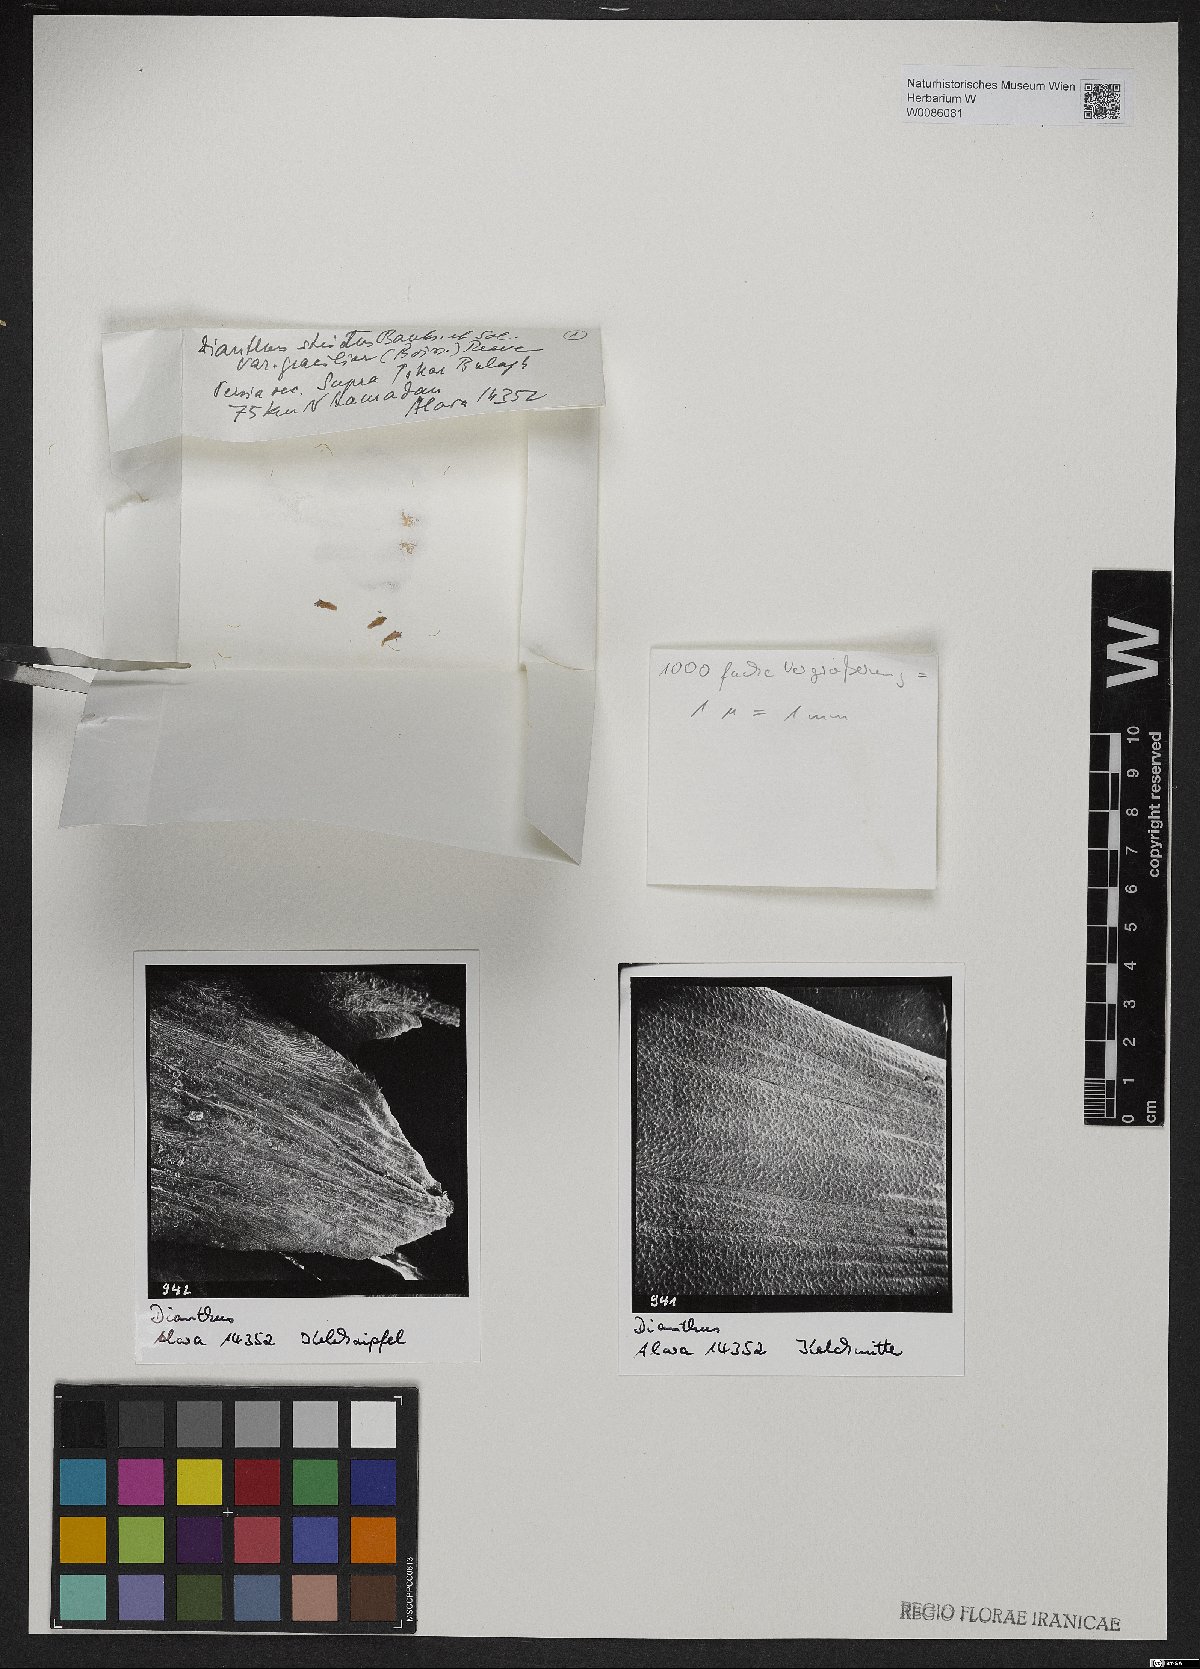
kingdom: Plantae
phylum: Tracheophyta
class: Magnoliopsida
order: Caryophyllales
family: Caryophyllaceae
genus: Dianthus
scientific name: Dianthus strictus
